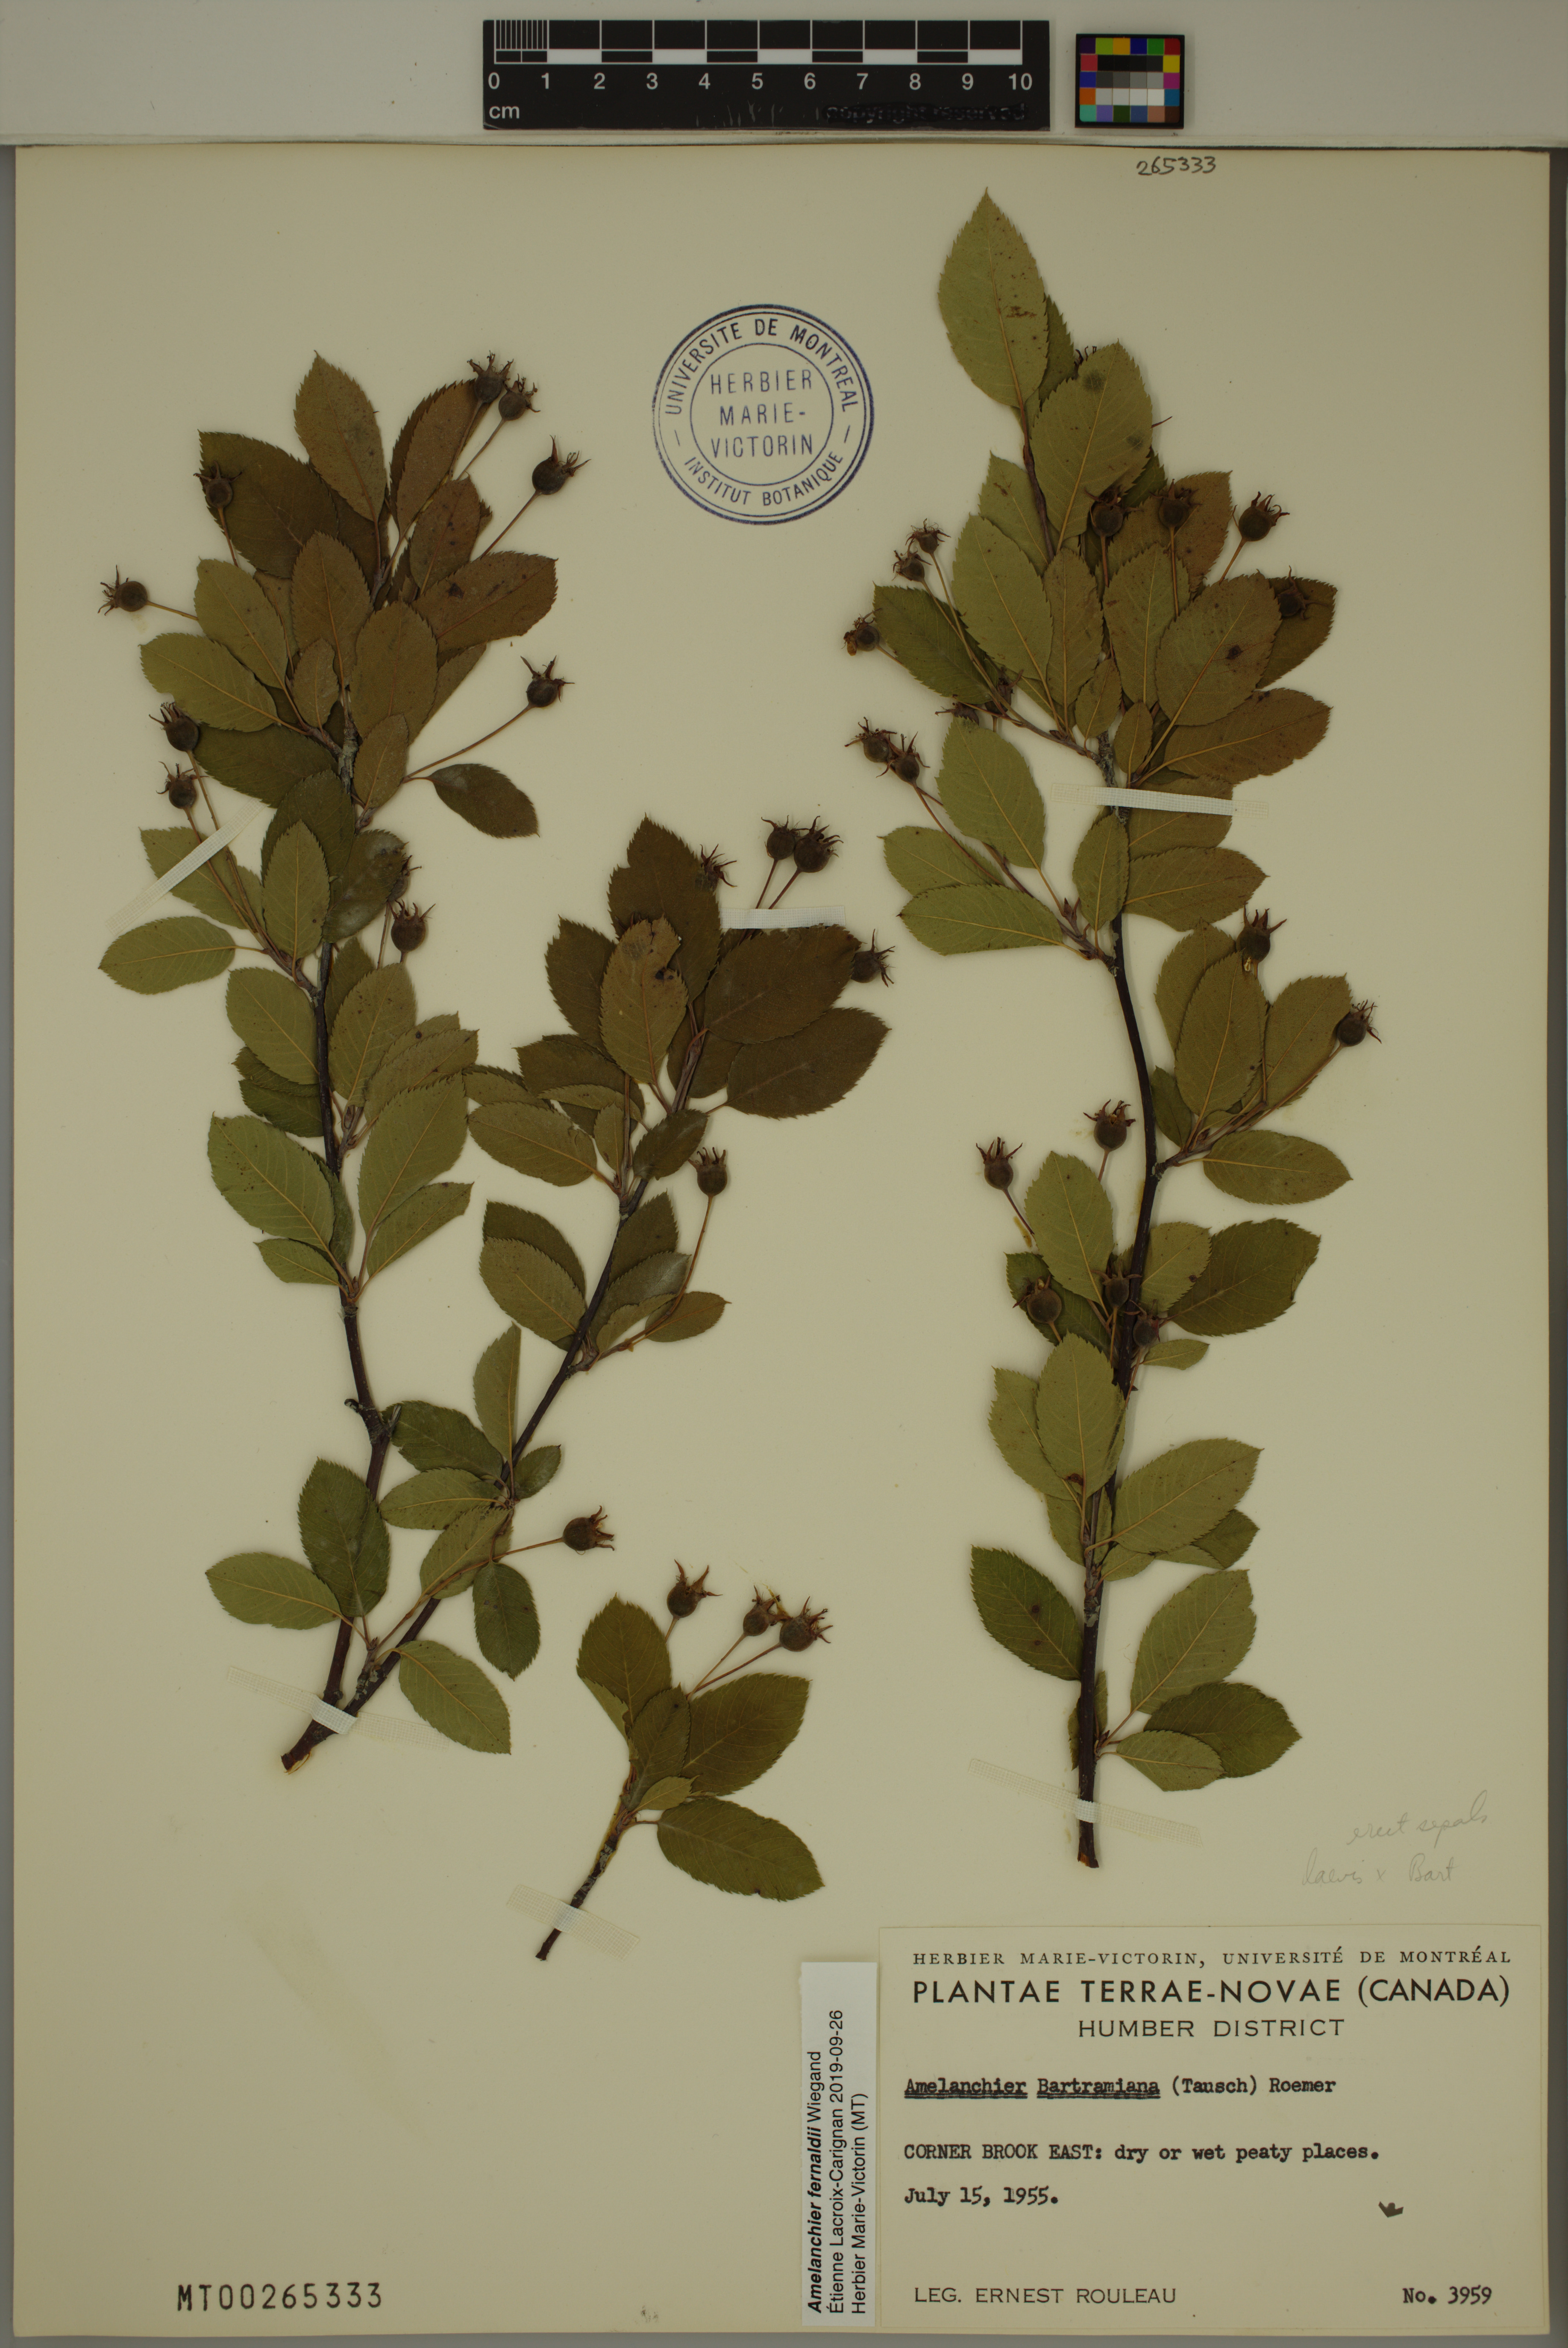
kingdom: Plantae
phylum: Tracheophyta
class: Magnoliopsida
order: Rosales
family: Rosaceae
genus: Amelanchier
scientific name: Amelanchier canadensis
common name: Thicket serviceberry
